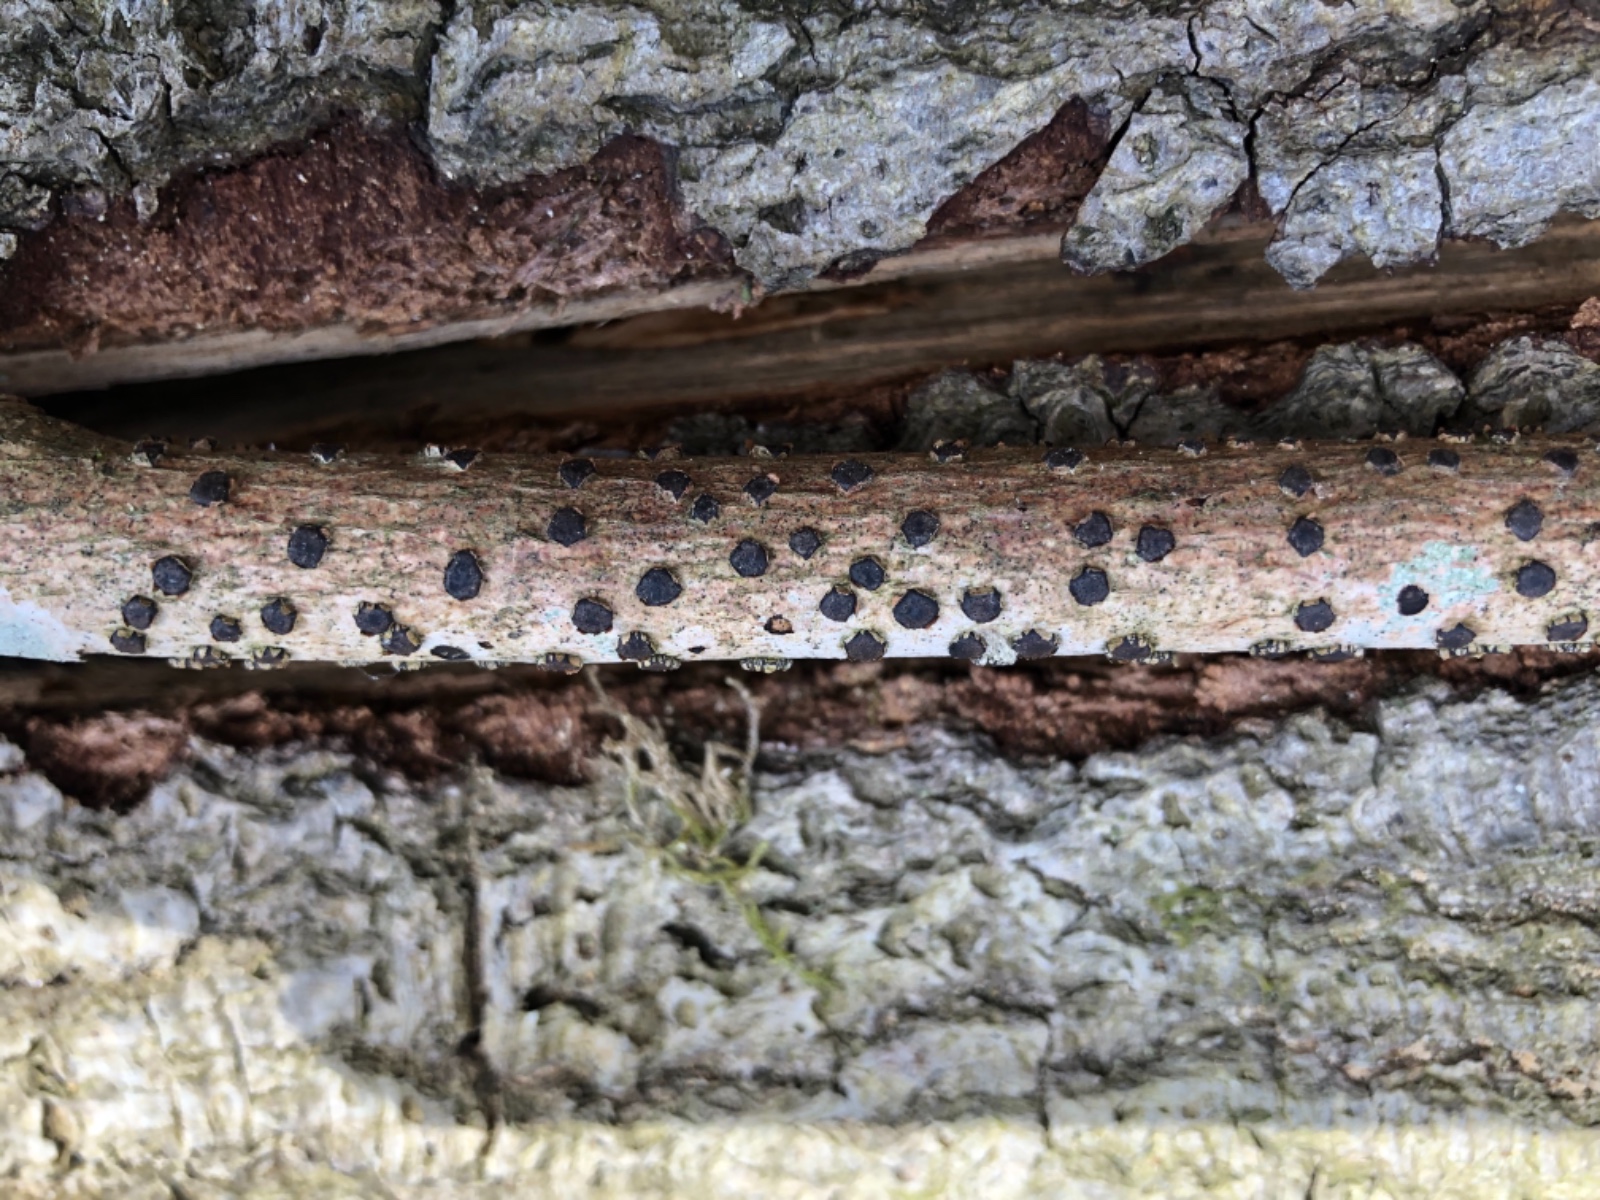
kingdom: Fungi
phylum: Ascomycota
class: Sordariomycetes
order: Xylariales
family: Diatrypaceae
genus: Diatrype
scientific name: Diatrype disciformis
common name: kant-kulskorpe
